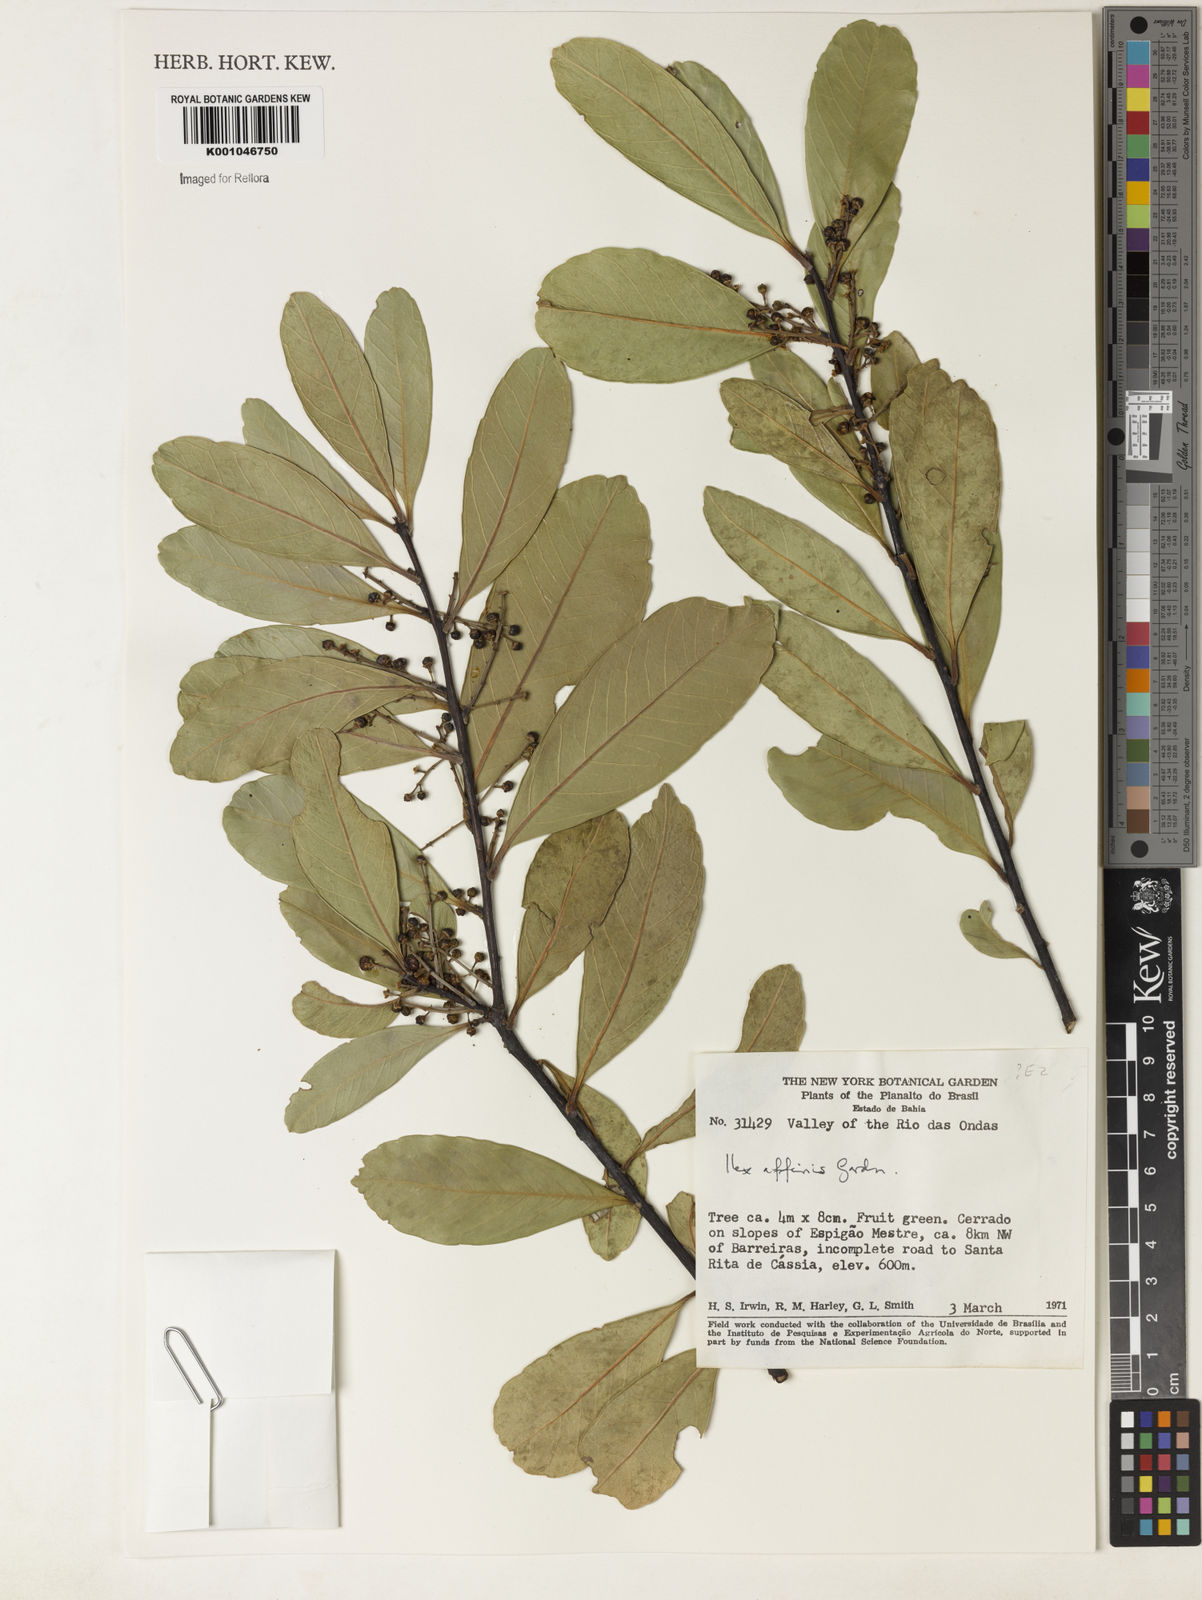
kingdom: Plantae
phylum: Tracheophyta
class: Magnoliopsida
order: Aquifoliales
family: Aquifoliaceae
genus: Ilex
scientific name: Ilex affinis
